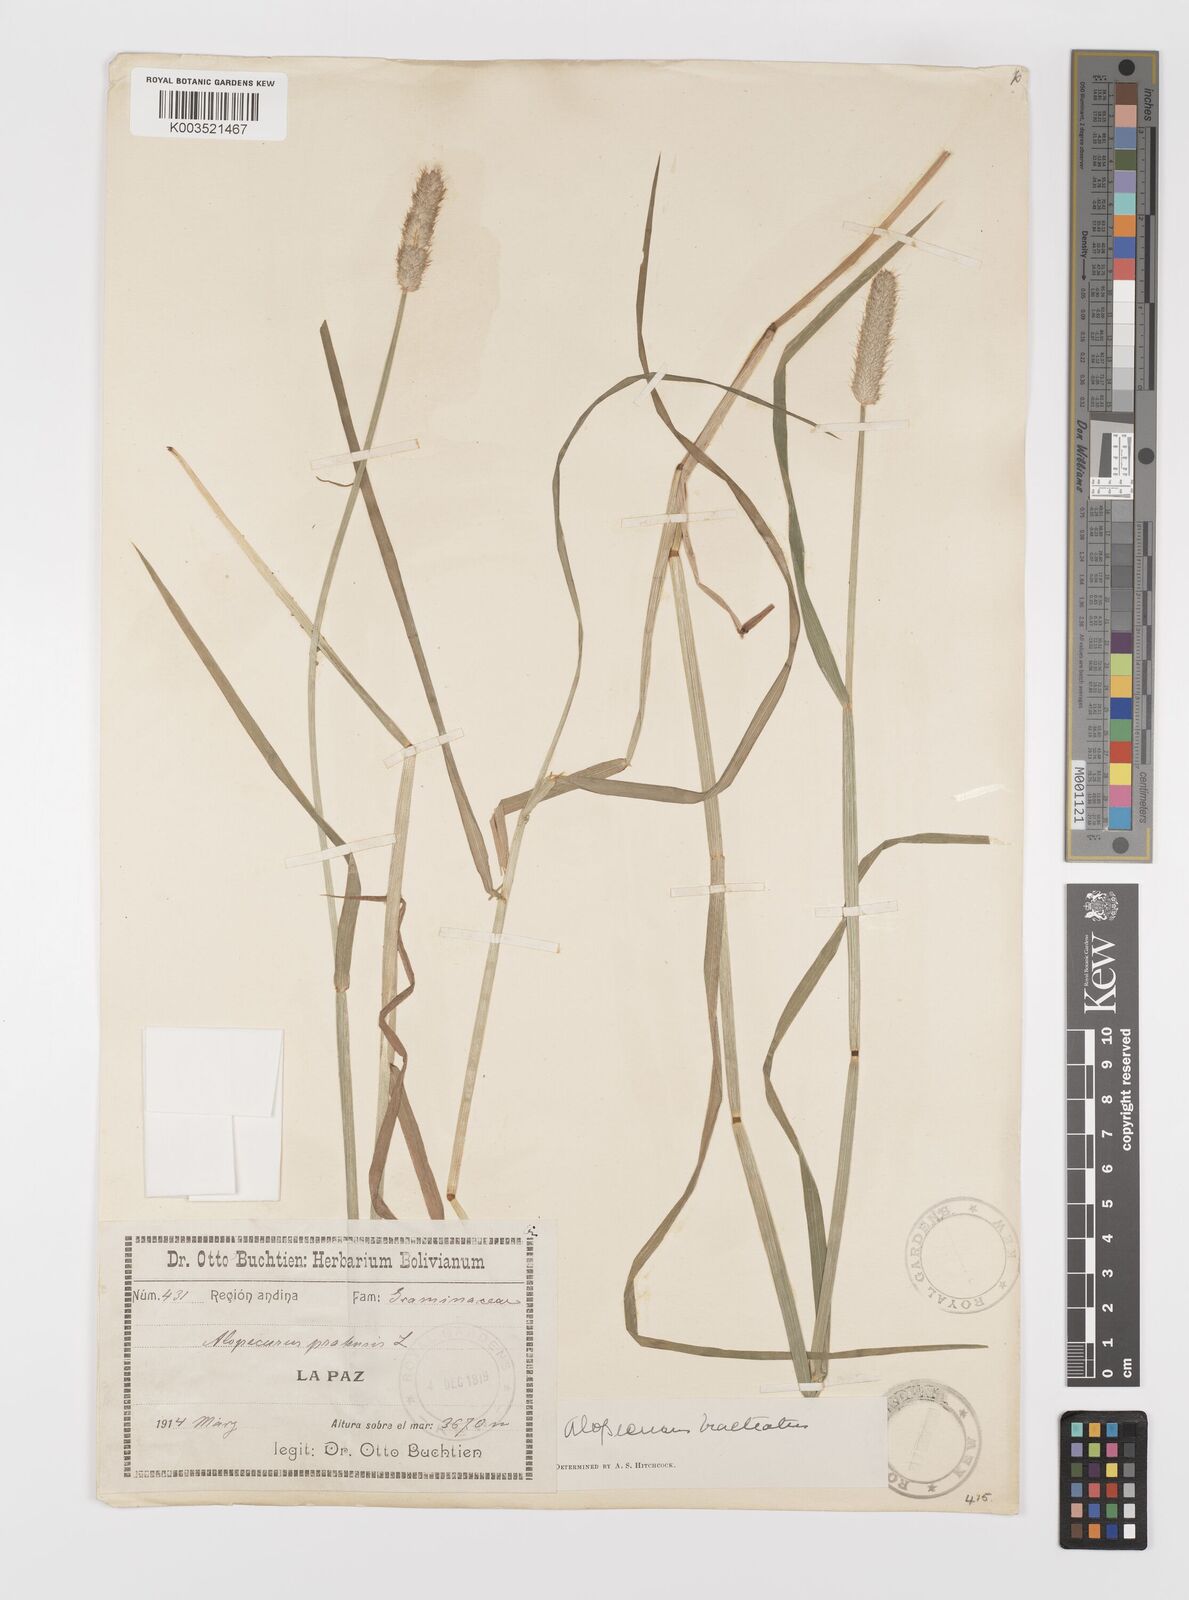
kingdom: Plantae
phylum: Tracheophyta
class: Liliopsida
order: Poales
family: Poaceae
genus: Alopecurus
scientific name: Alopecurus magellanicus
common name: Alpine foxtail
